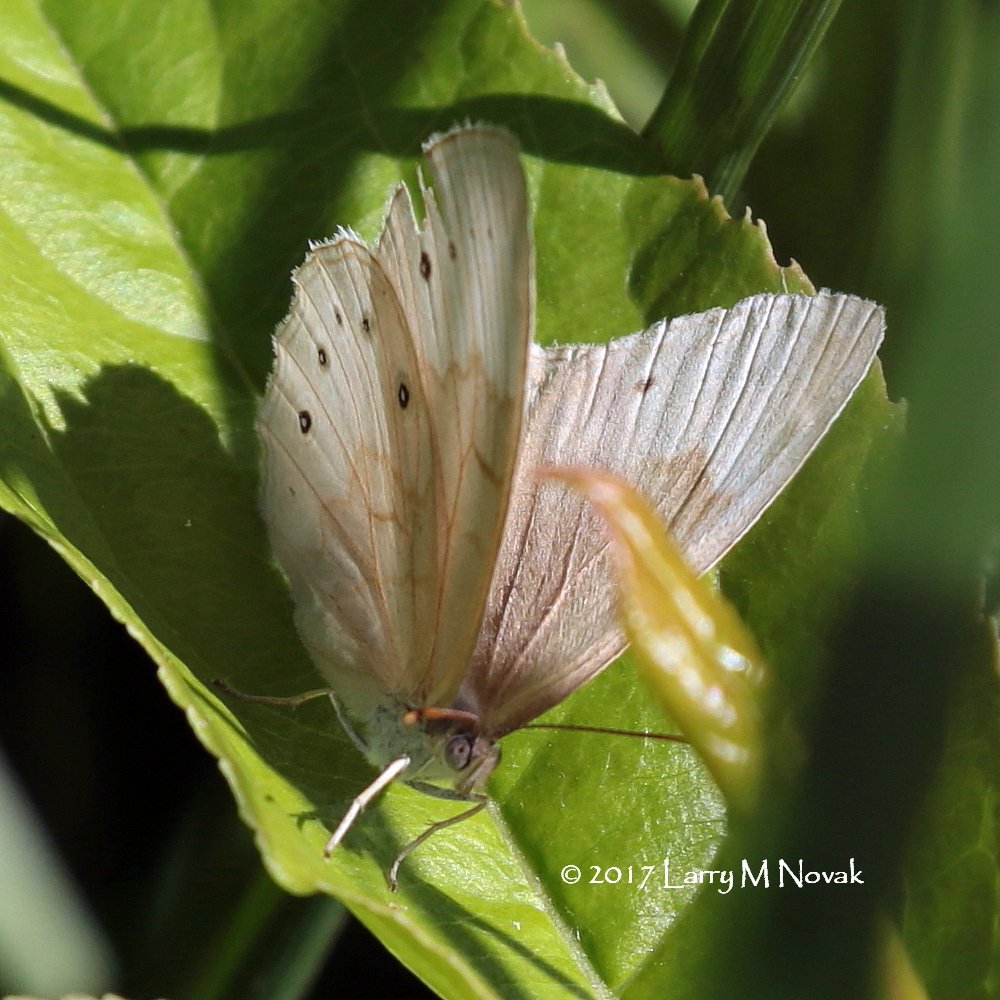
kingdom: Animalia
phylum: Arthropoda
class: Insecta
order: Lepidoptera
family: Nymphalidae
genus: Lethe
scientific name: Lethe eurydice
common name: Eyed Brown
